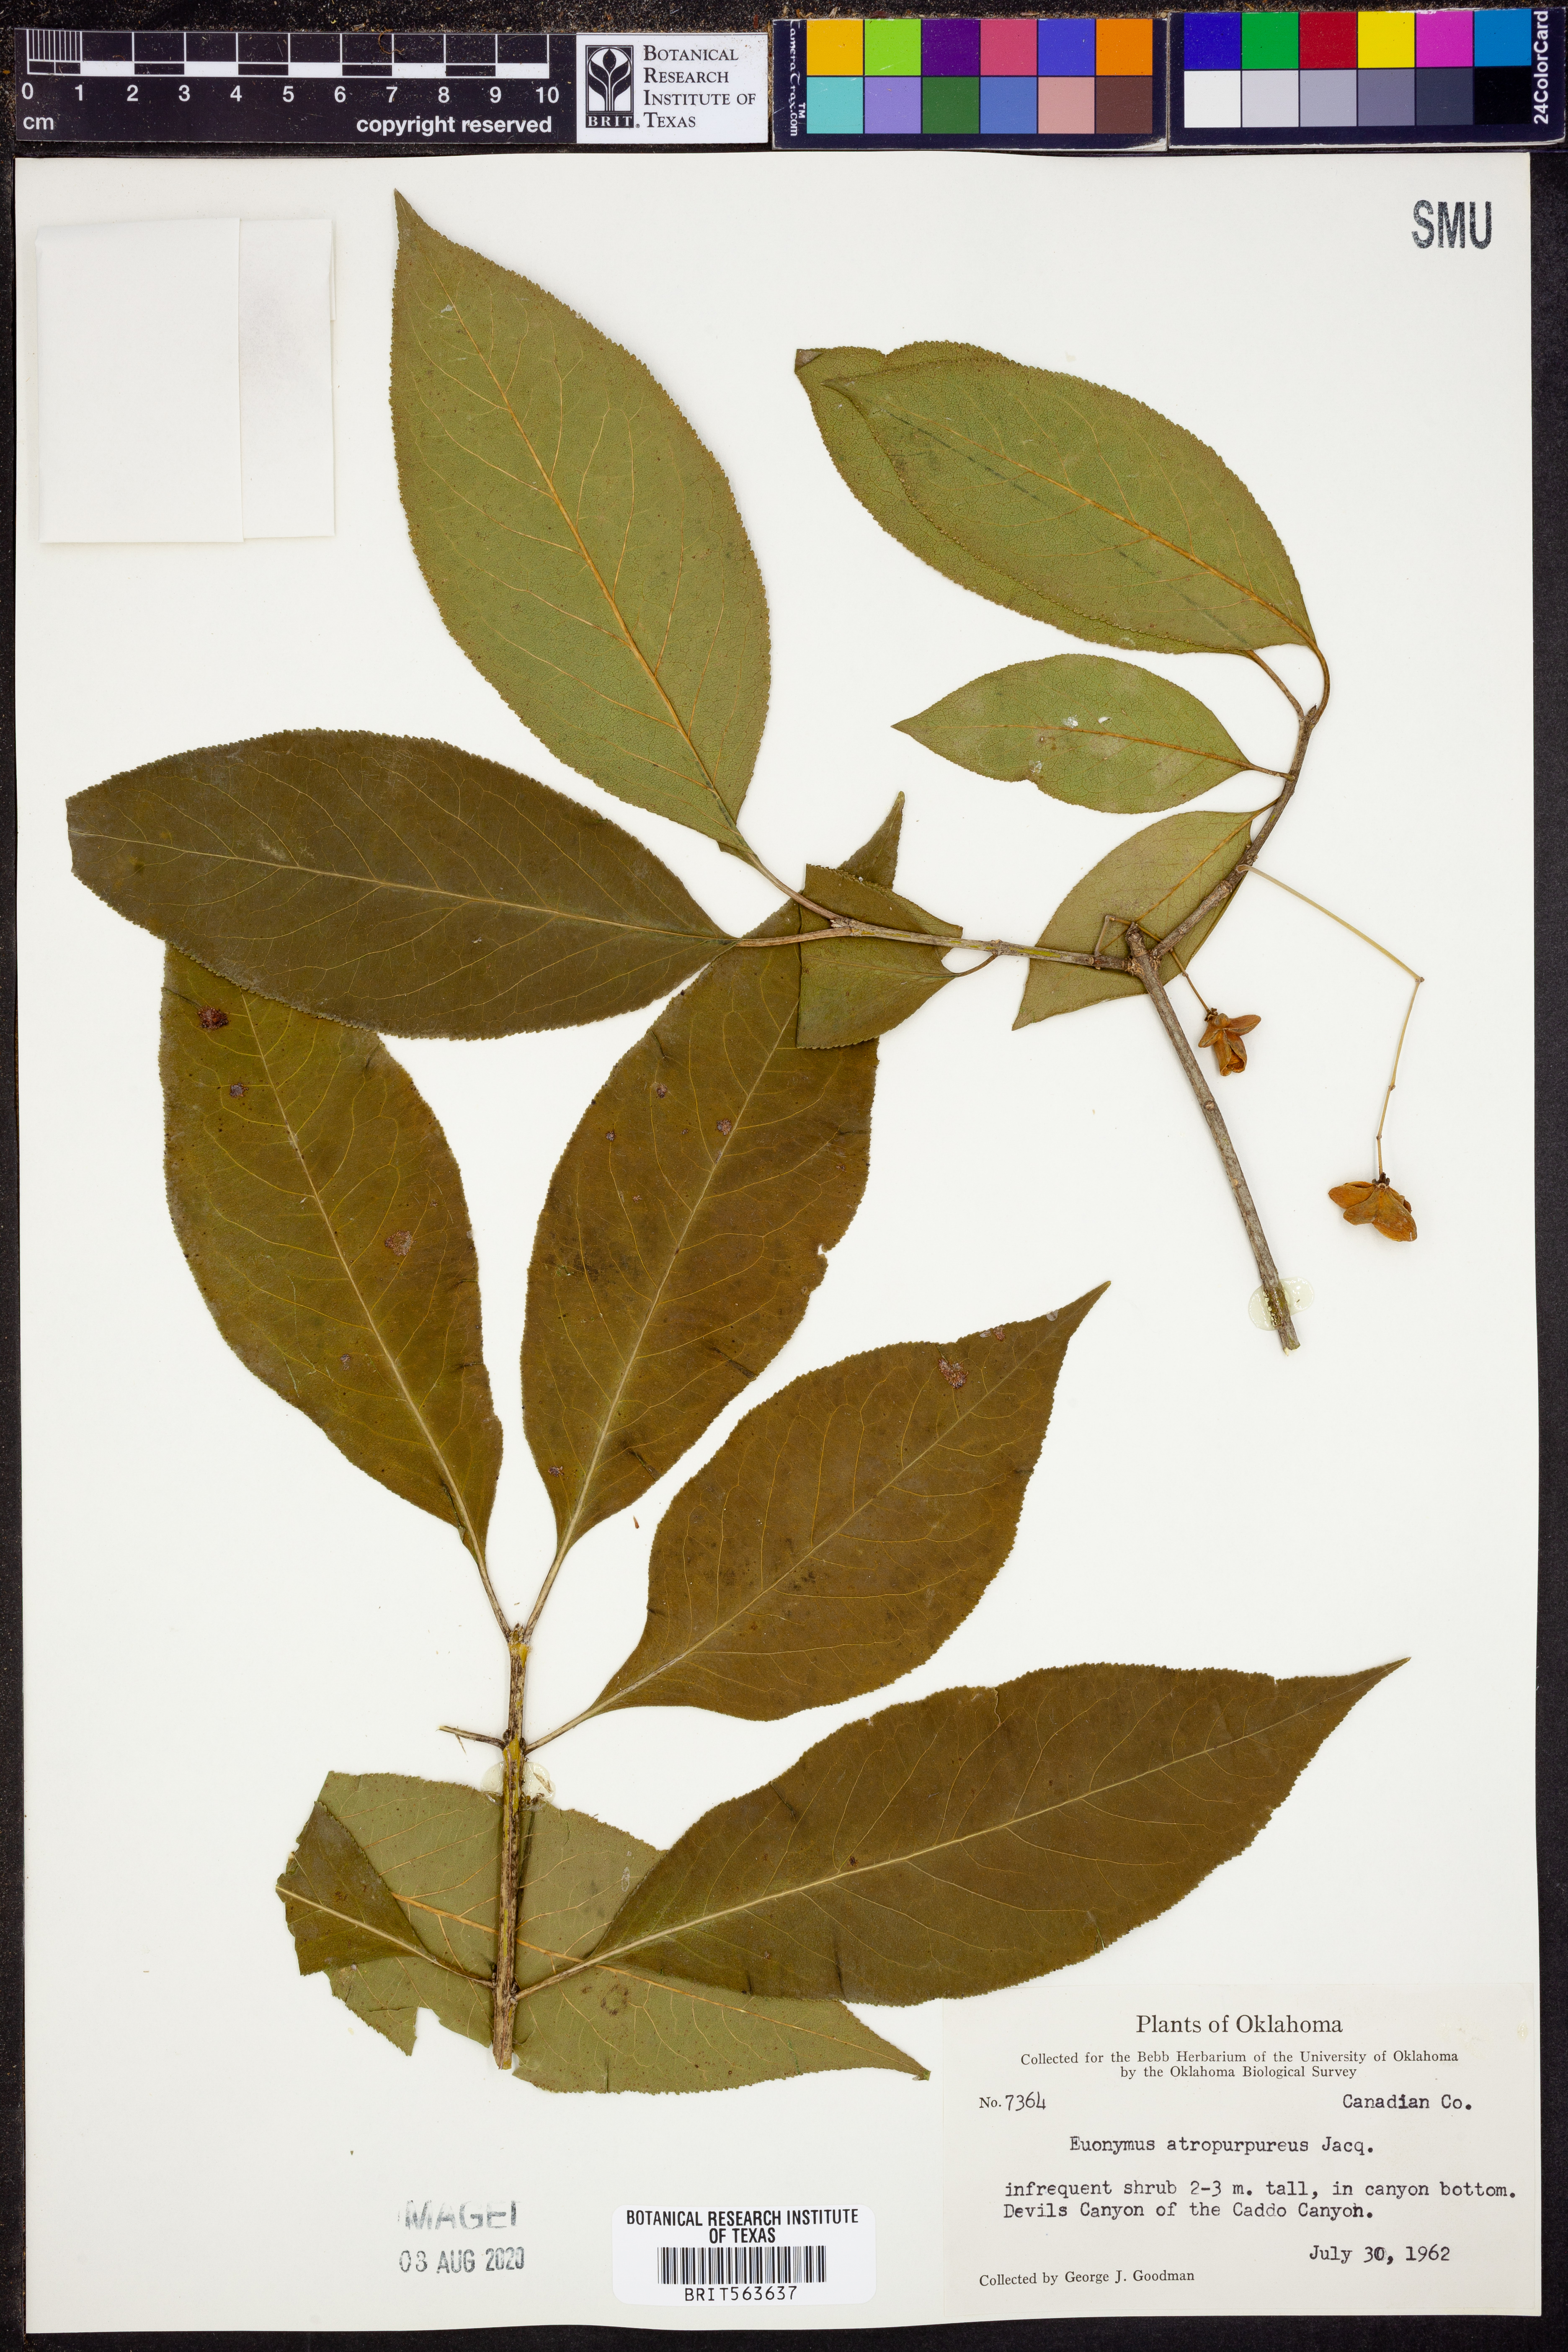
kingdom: Plantae
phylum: Tracheophyta
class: Magnoliopsida
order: Celastrales
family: Celastraceae
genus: Euonymus
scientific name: Euonymus atropurpureus
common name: Eastern wahoo
